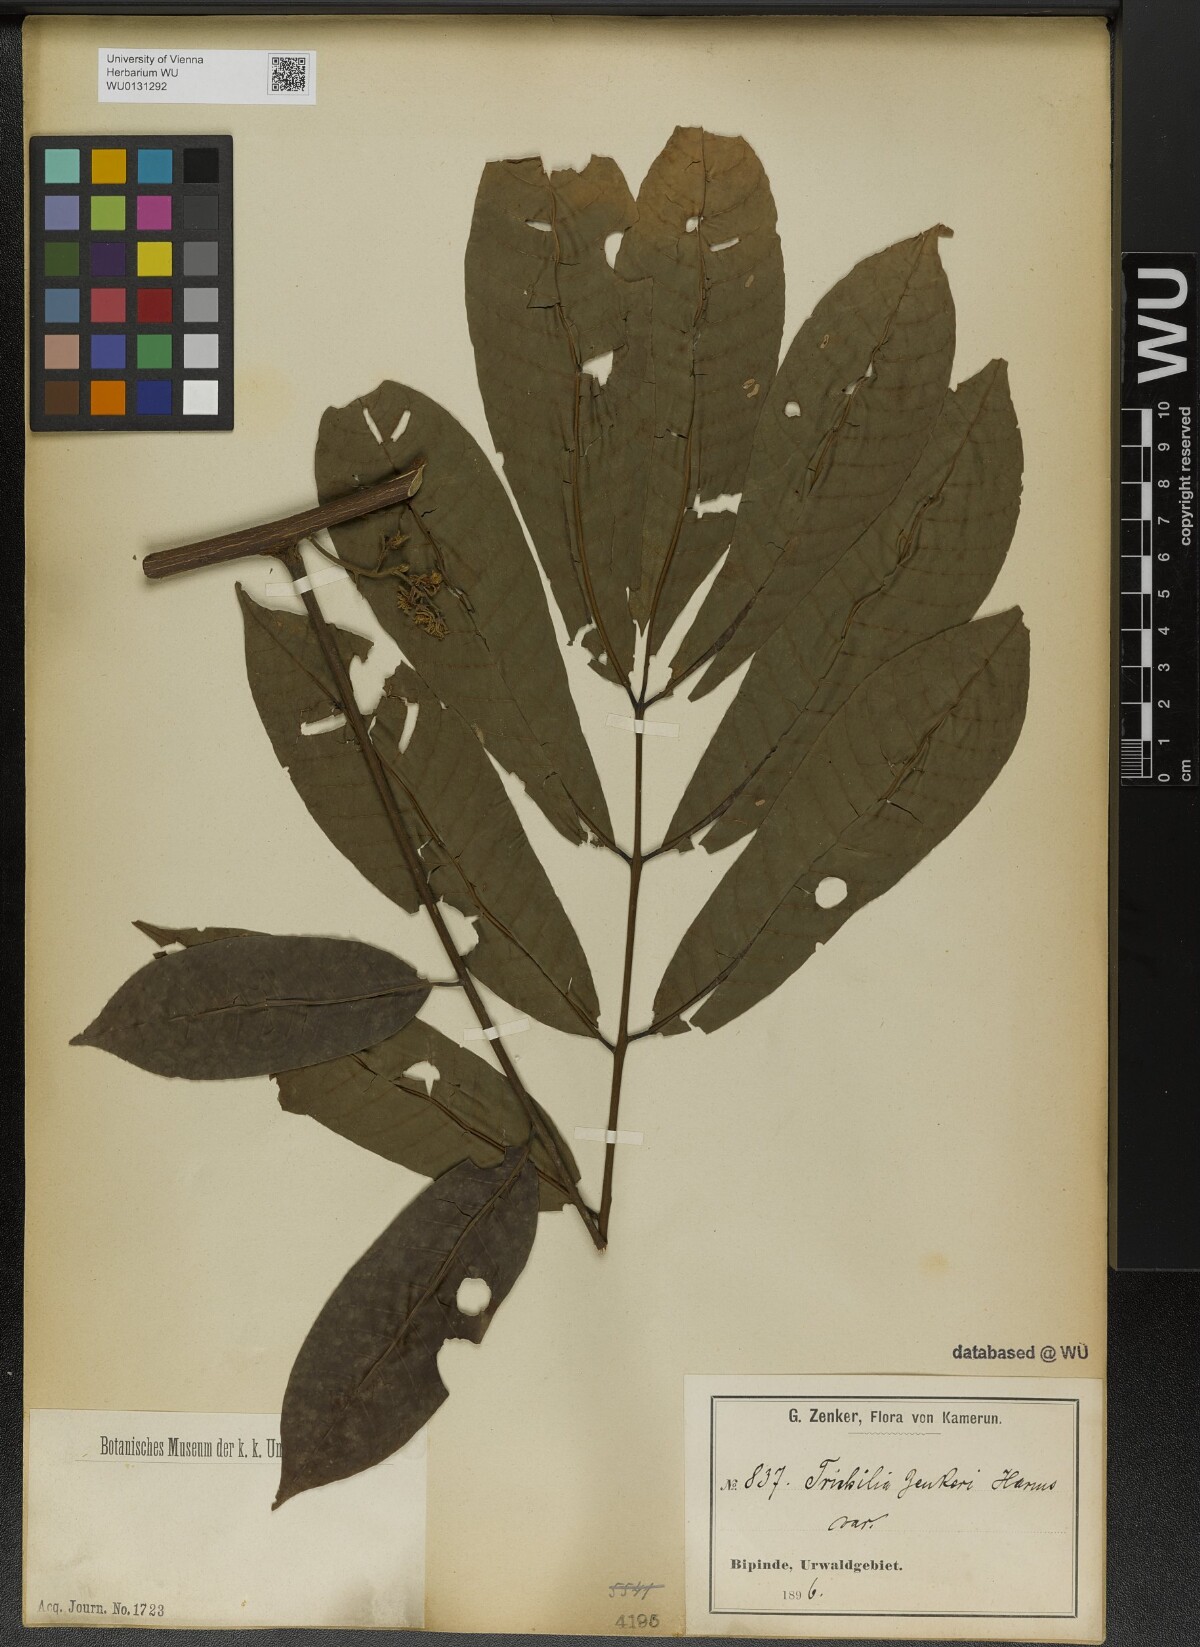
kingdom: Plantae
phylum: Tracheophyta
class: Magnoliopsida
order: Sapindales
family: Meliaceae
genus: Trichilia
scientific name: Trichilia welwitschii
